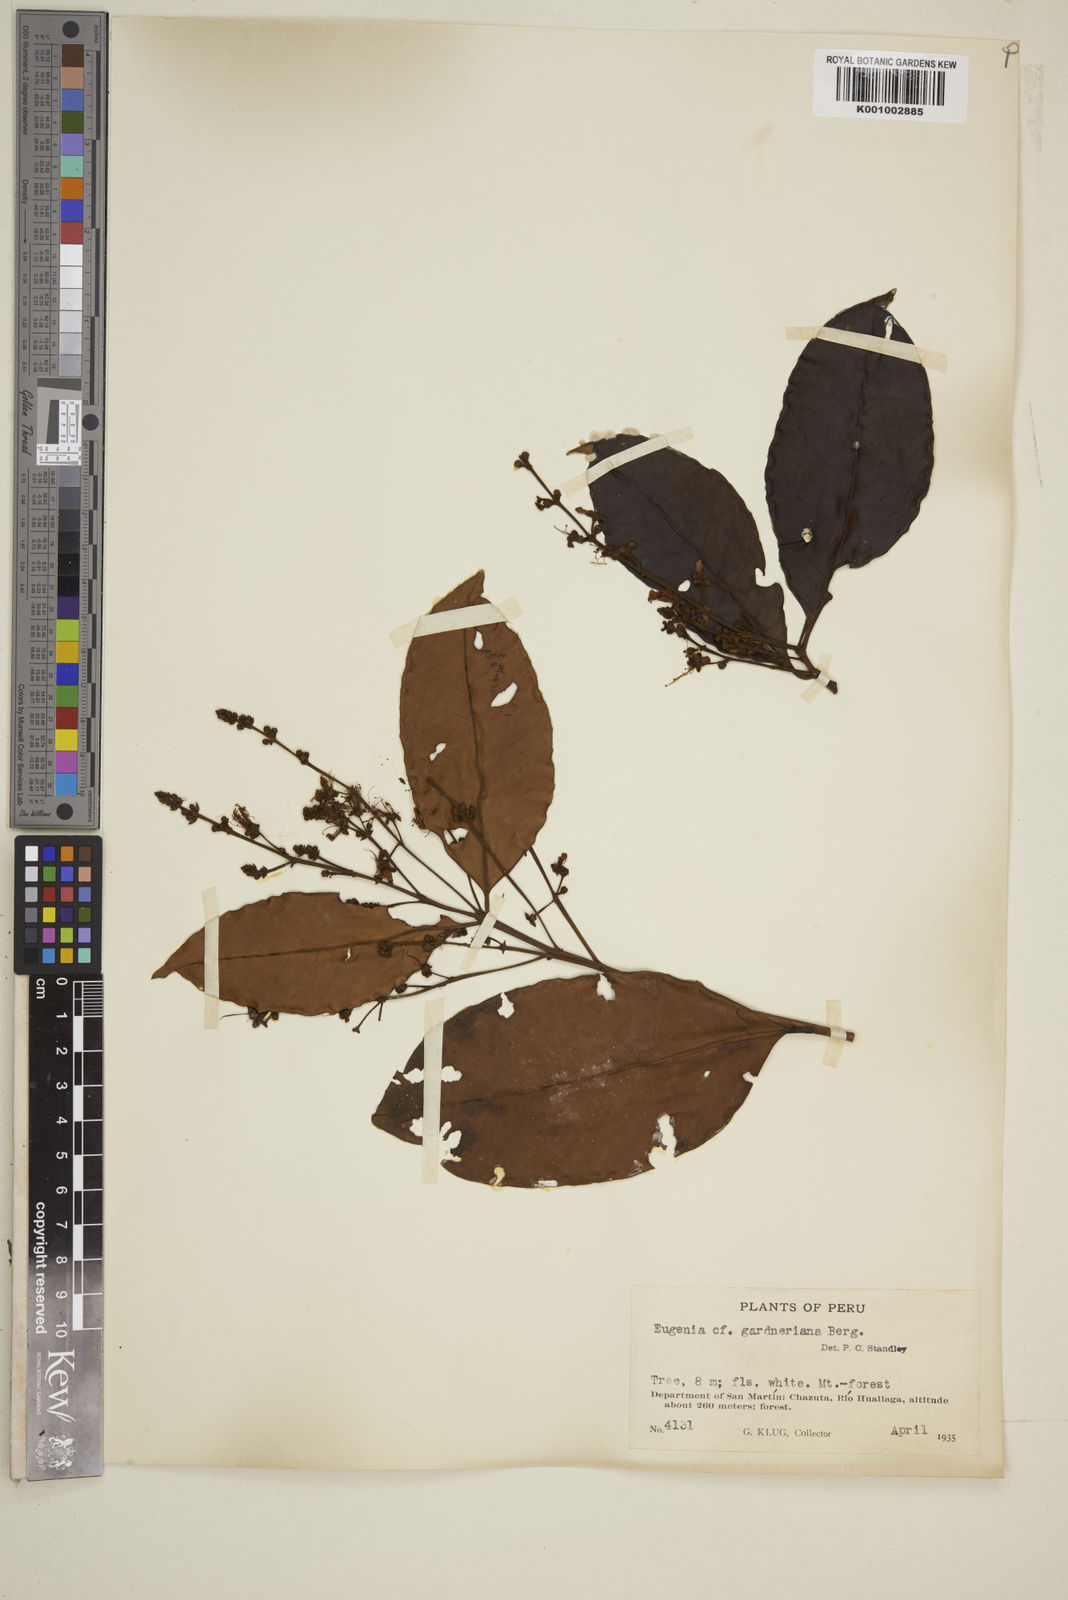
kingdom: Plantae
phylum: Tracheophyta
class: Magnoliopsida
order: Myrtales
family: Myrtaceae
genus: Eugenia
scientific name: Eugenia florida
